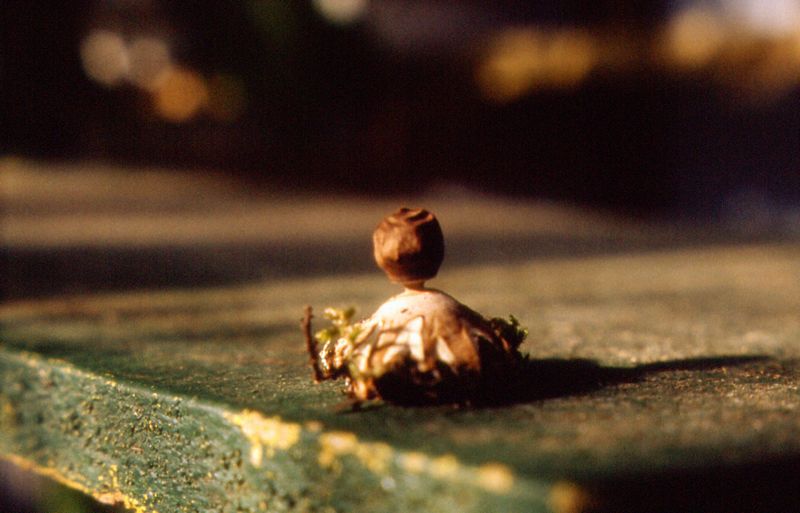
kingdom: Fungi
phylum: Basidiomycota
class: Agaricomycetes
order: Geastrales
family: Geastraceae
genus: Geastrum
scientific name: Geastrum minimum
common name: liden stjernebold
